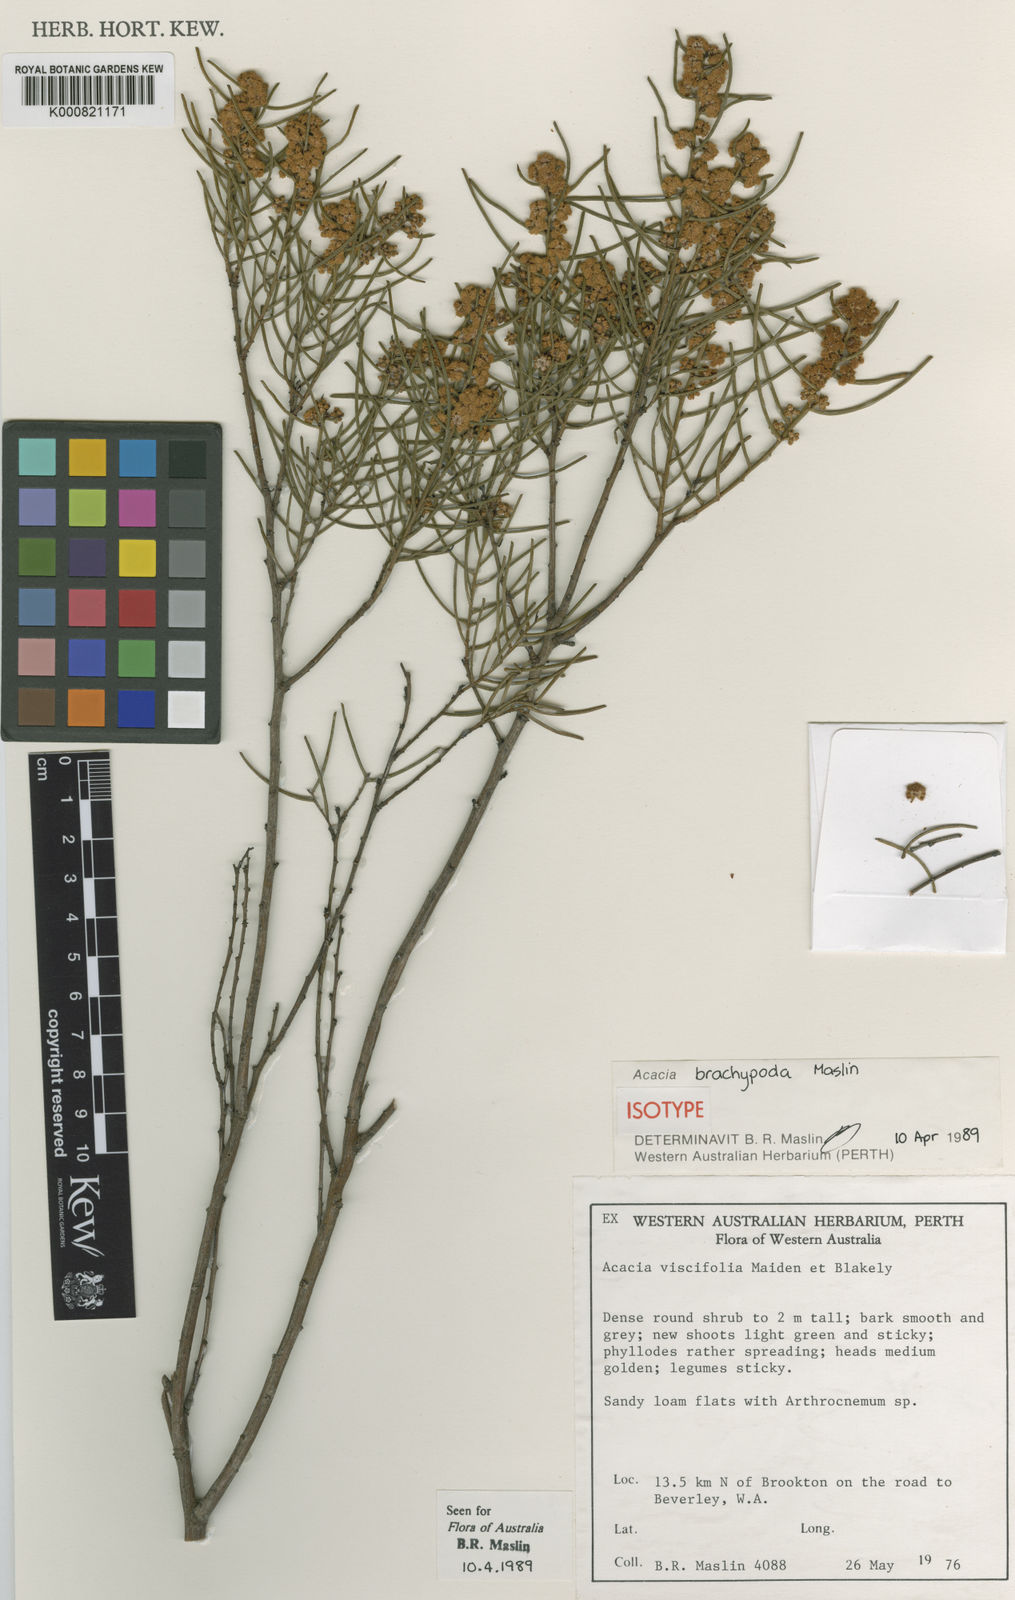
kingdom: Plantae
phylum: Tracheophyta
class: Magnoliopsida
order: Fabales
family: Fabaceae
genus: Acacia
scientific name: Acacia brachypoda
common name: Western wheatbelt wattle
